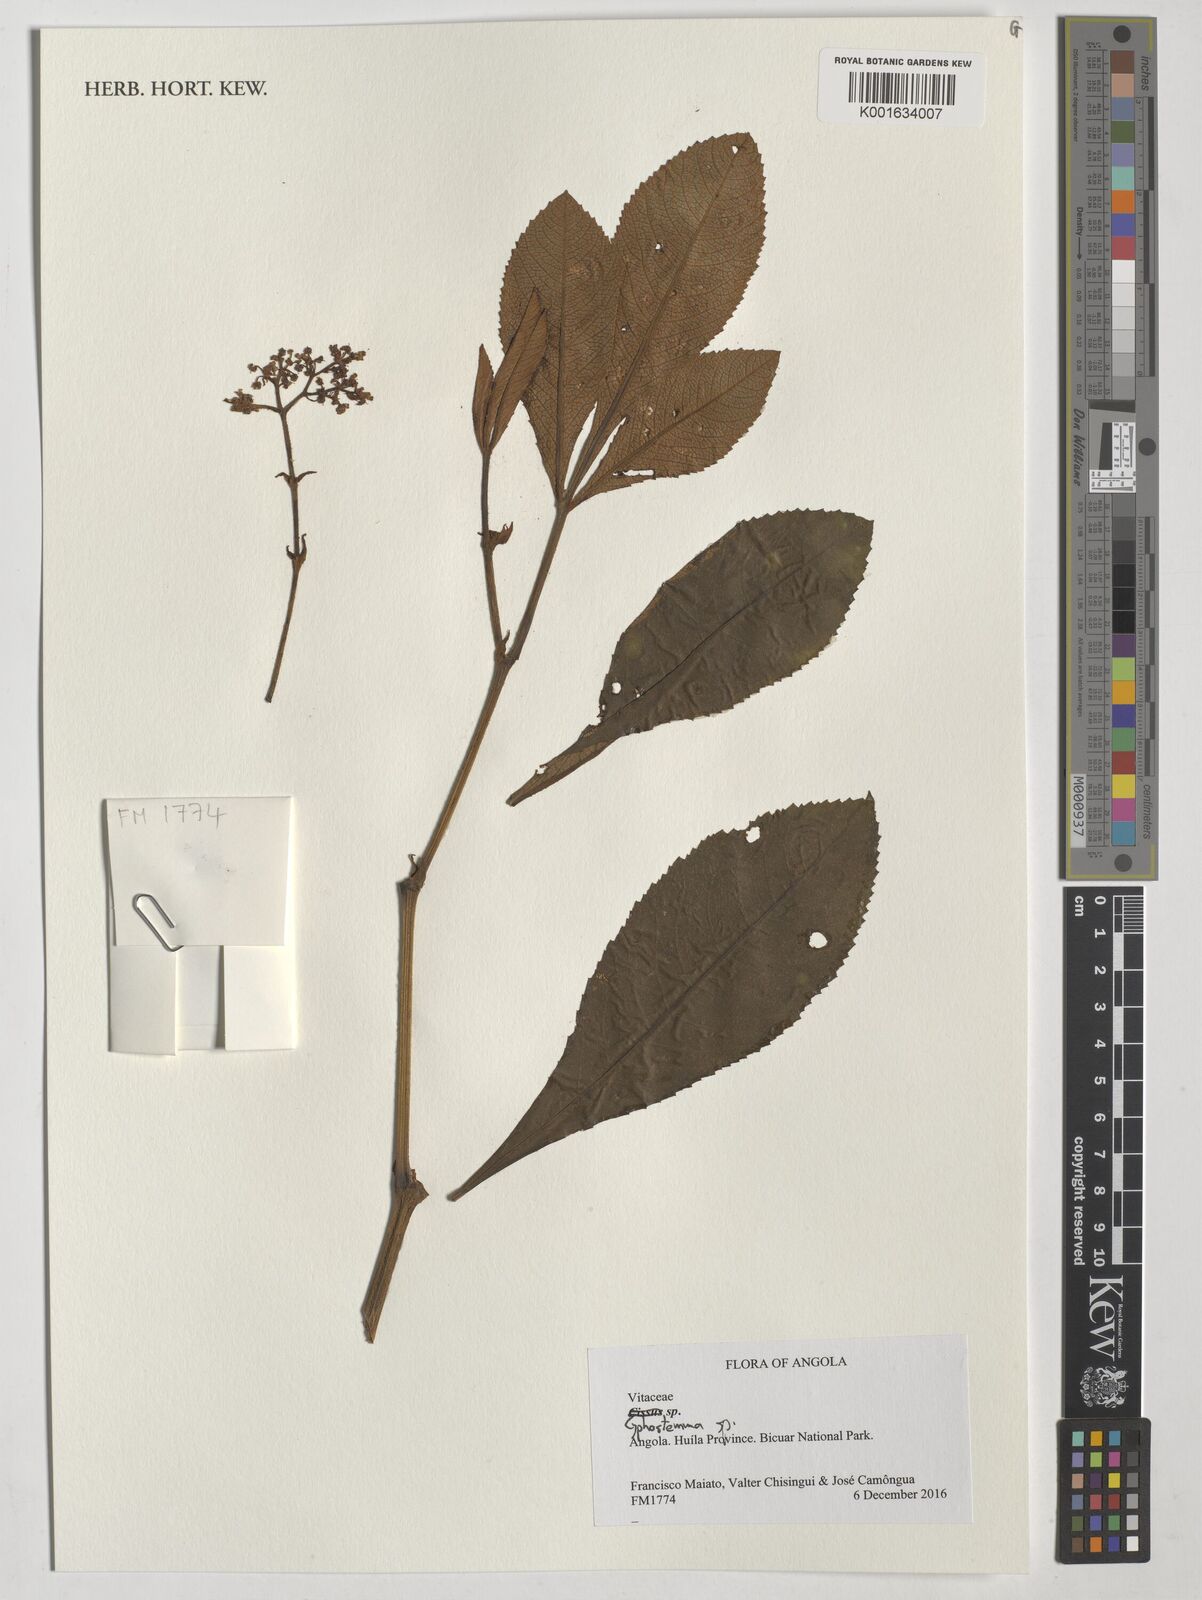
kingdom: Plantae
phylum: Tracheophyta
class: Magnoliopsida
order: Vitales
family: Vitaceae
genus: Cyphostemma
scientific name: Cyphostemma
